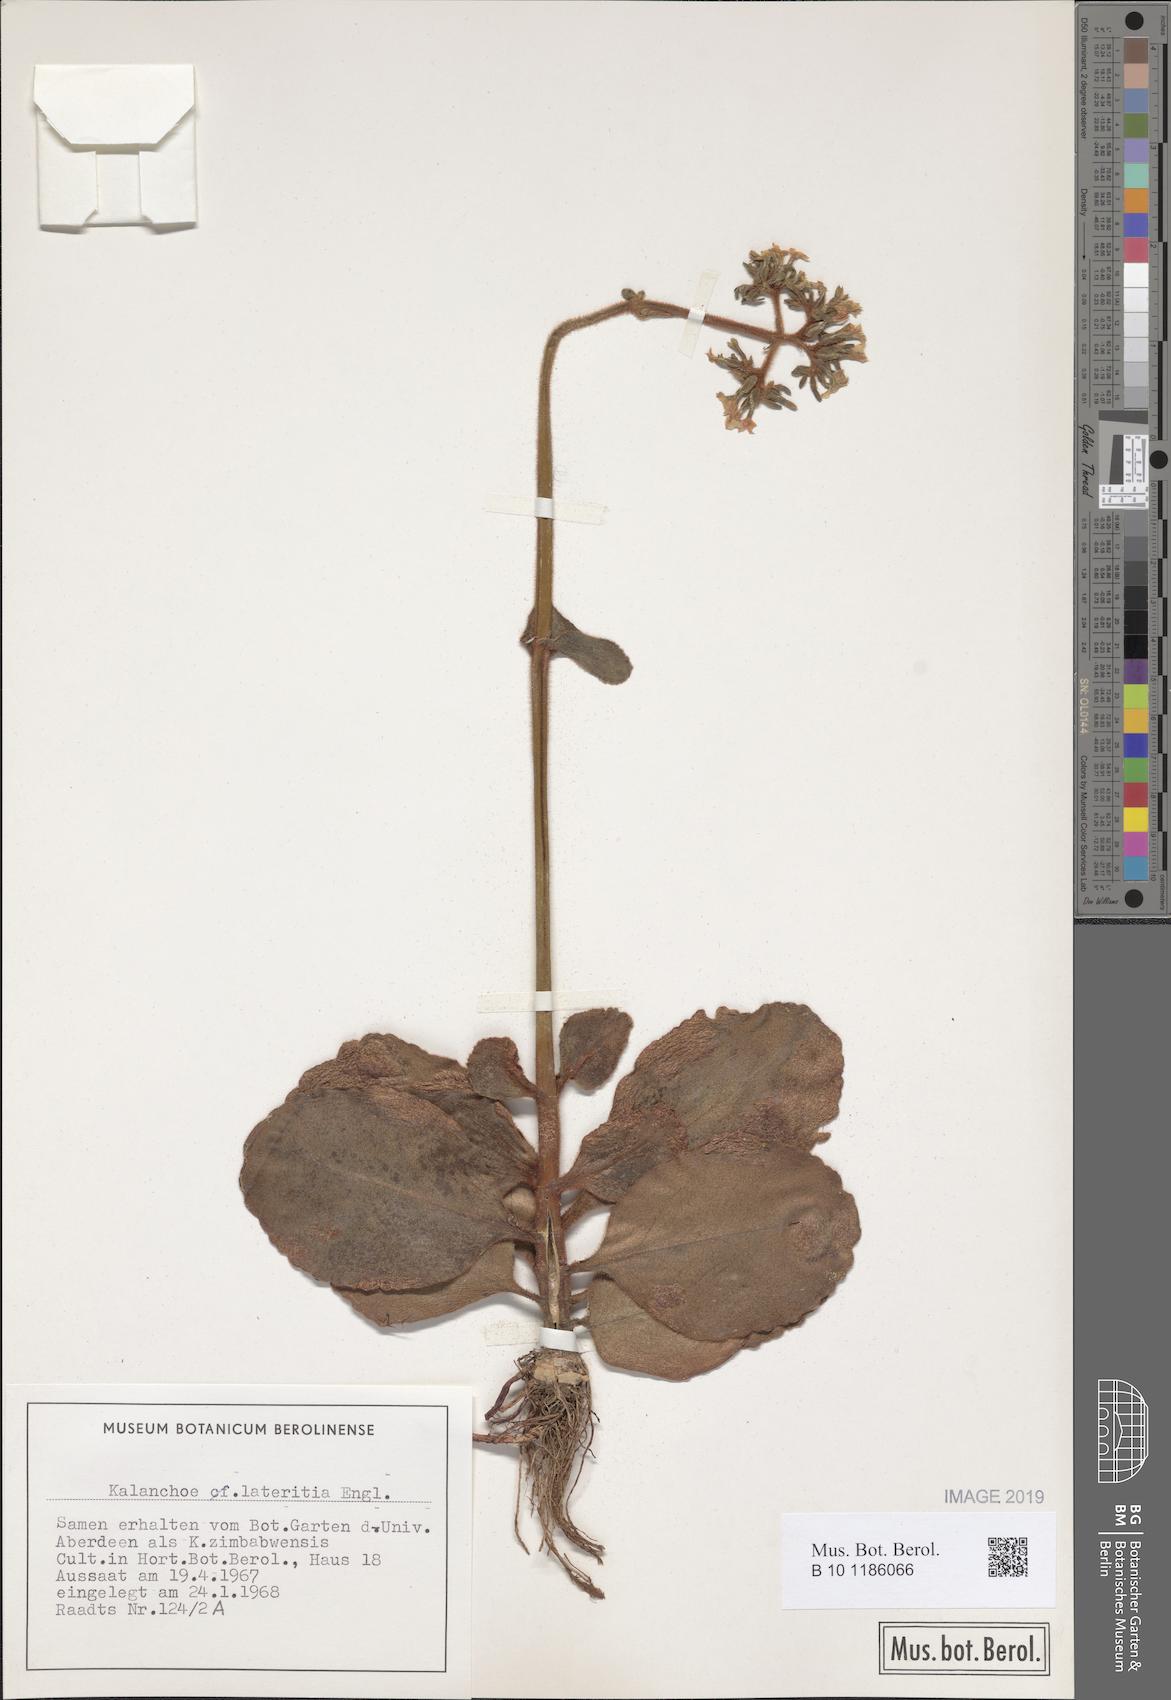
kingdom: Plantae
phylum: Tracheophyta
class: Magnoliopsida
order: Saxifragales
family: Crassulaceae
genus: Kalanchoe
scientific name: Kalanchoe lateritia
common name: Kalanchoe
